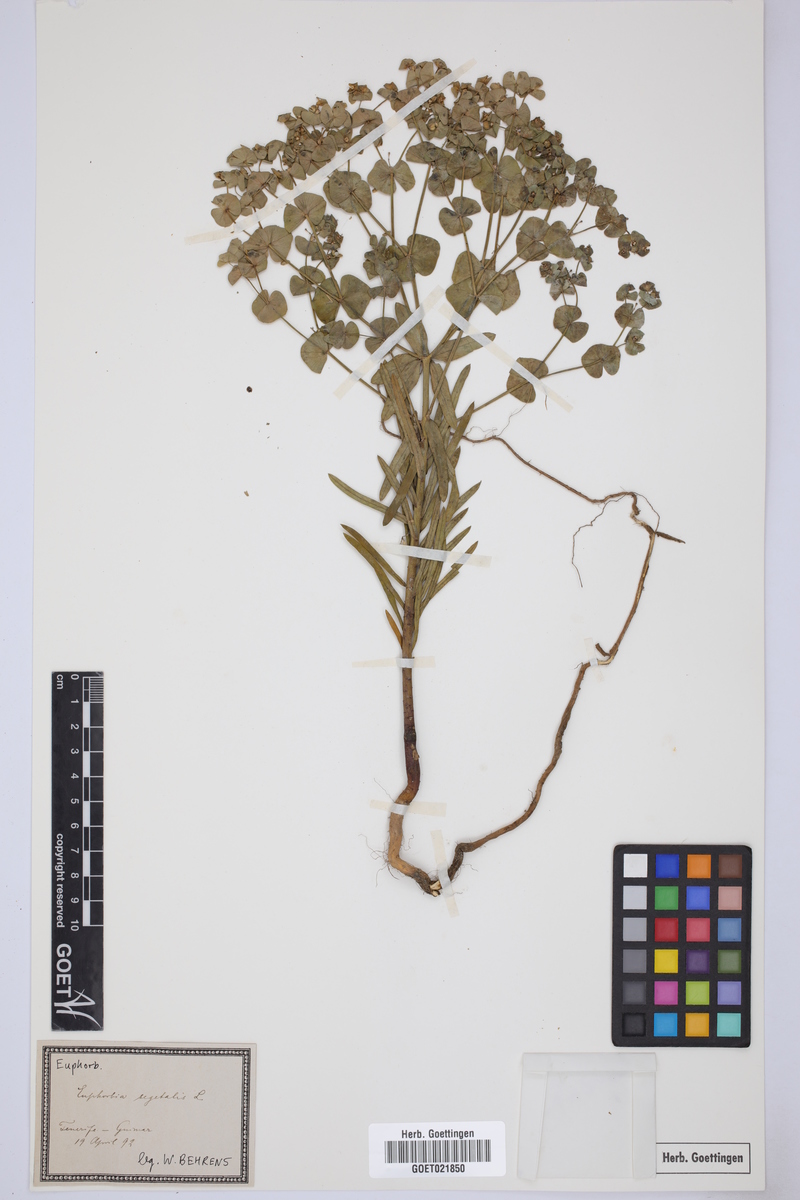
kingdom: Plantae
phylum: Tracheophyta
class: Magnoliopsida
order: Malpighiales
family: Euphorbiaceae
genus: Euphorbia
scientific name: Euphorbia segetalis
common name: Corn spurge
